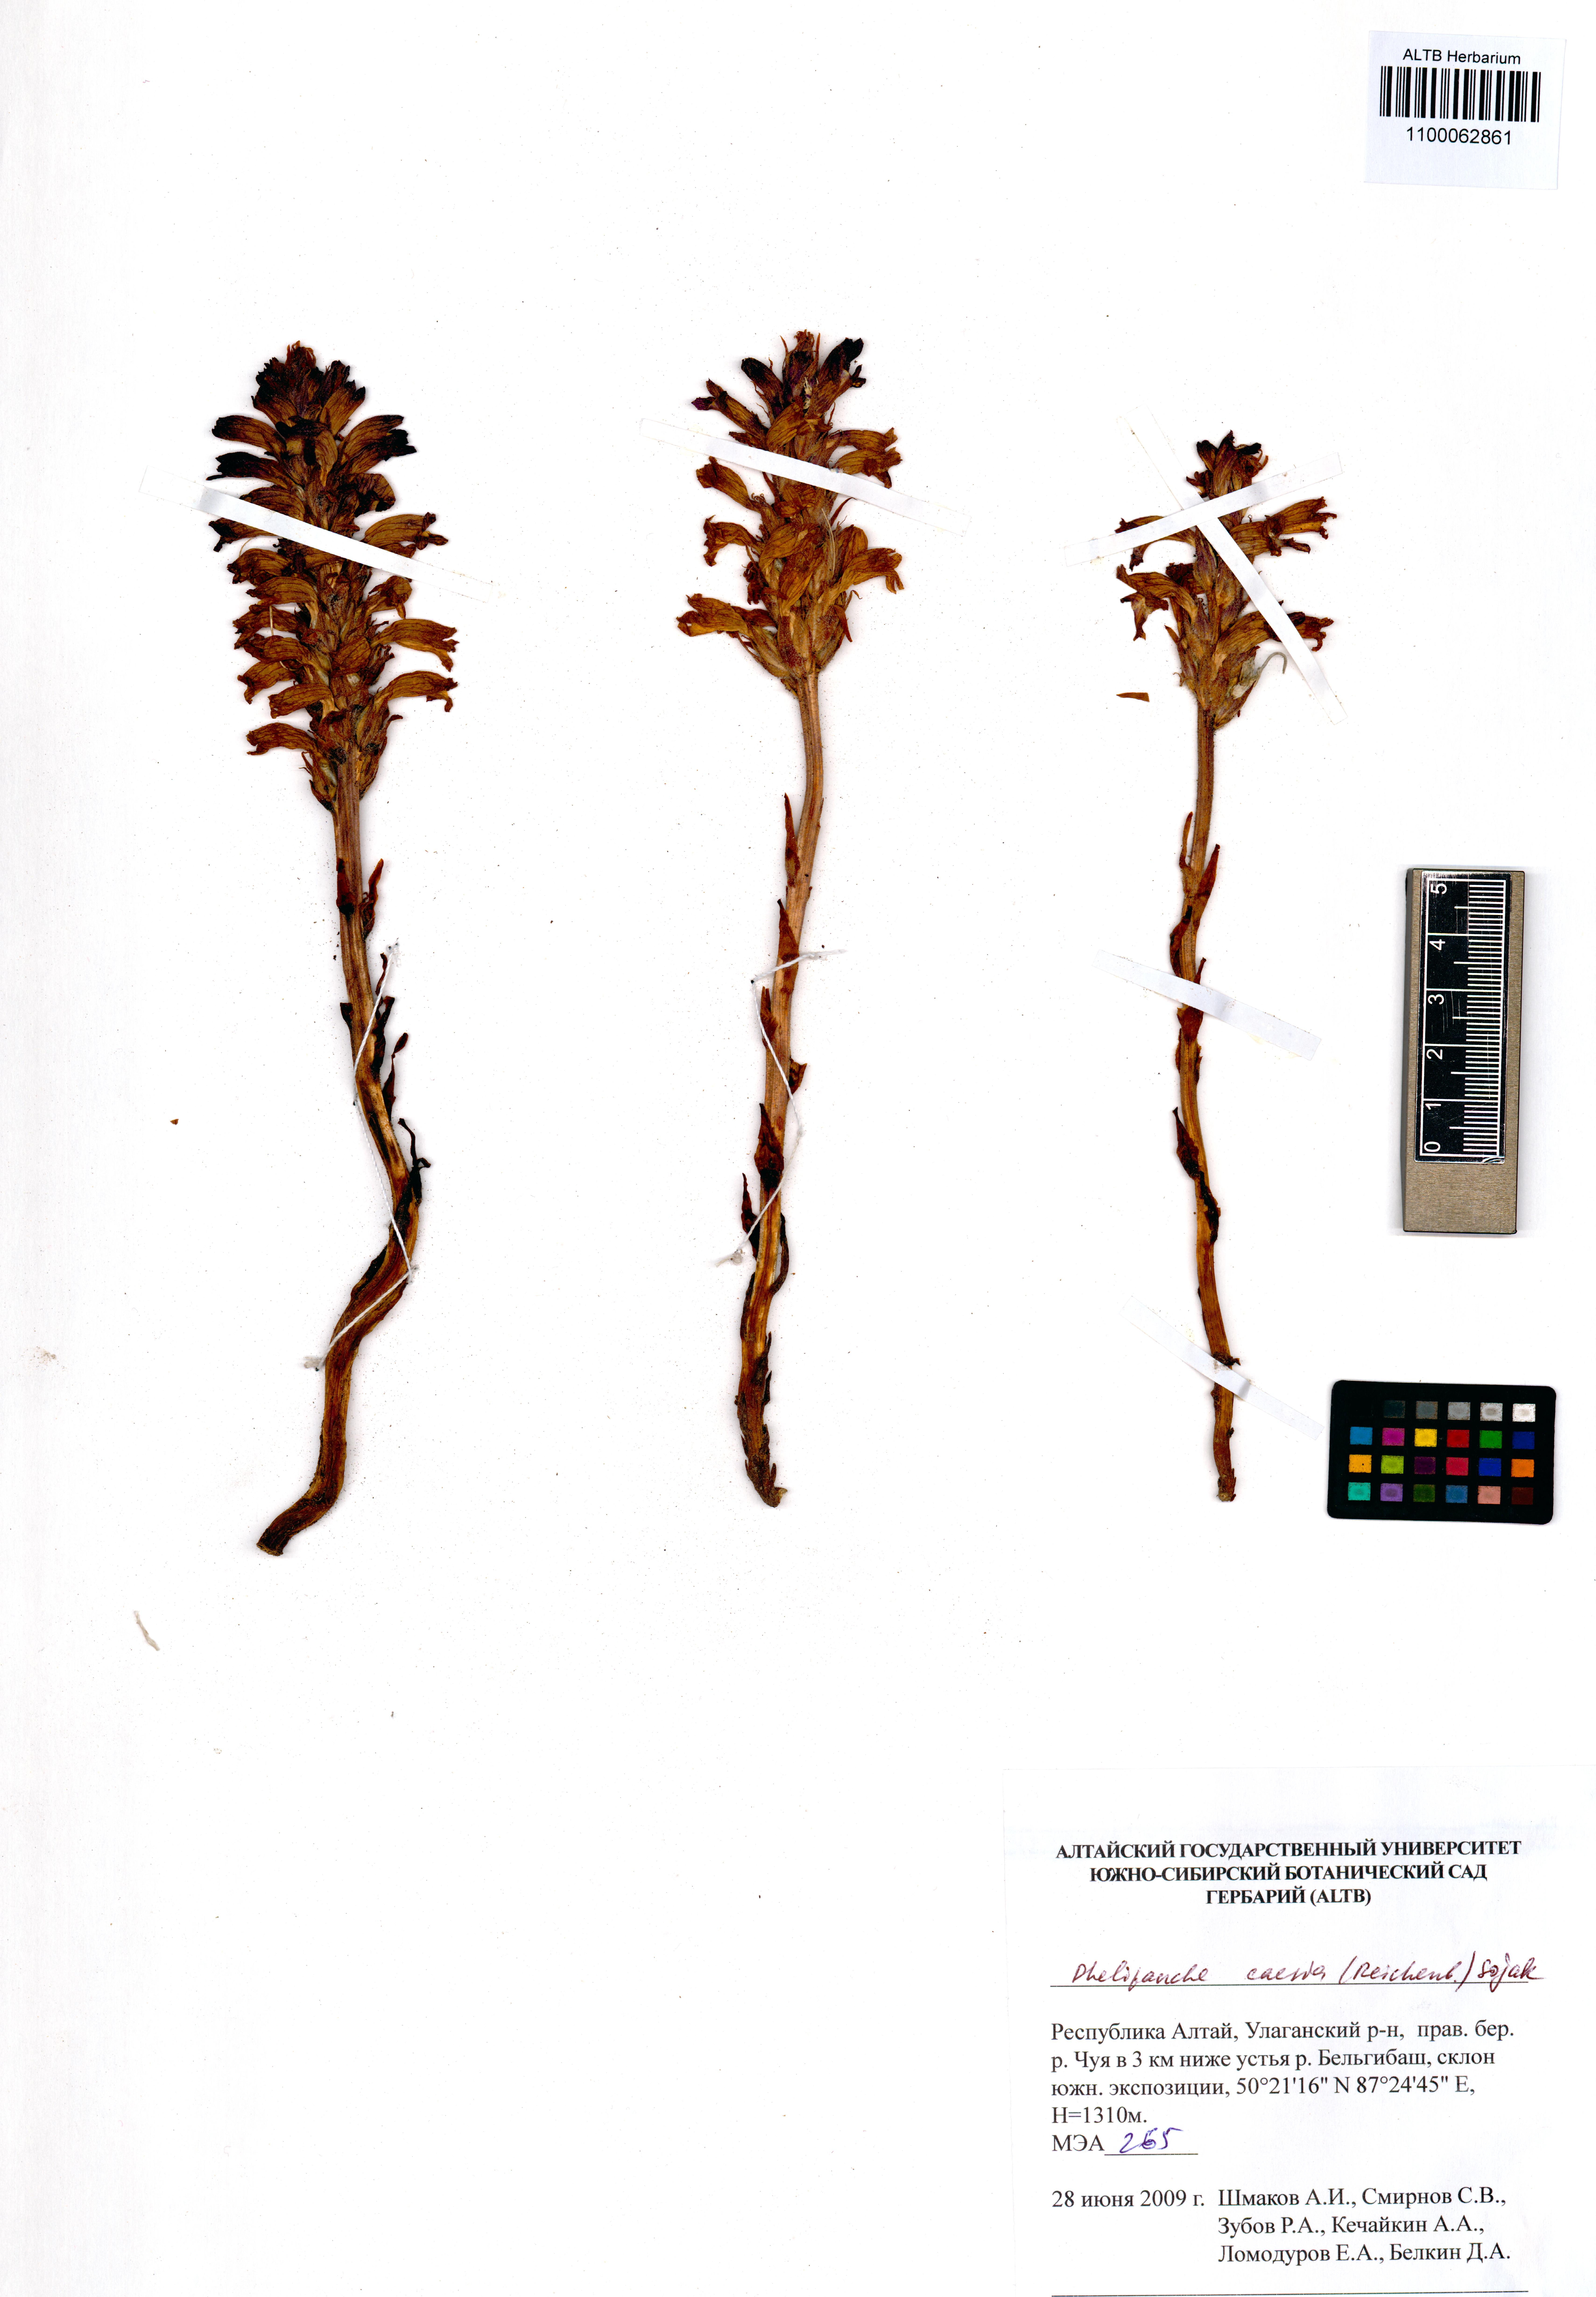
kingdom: Plantae
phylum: Tracheophyta
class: Magnoliopsida
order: Lamiales
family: Orobanchaceae
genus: Phelipanche
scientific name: Phelipanche caesia
